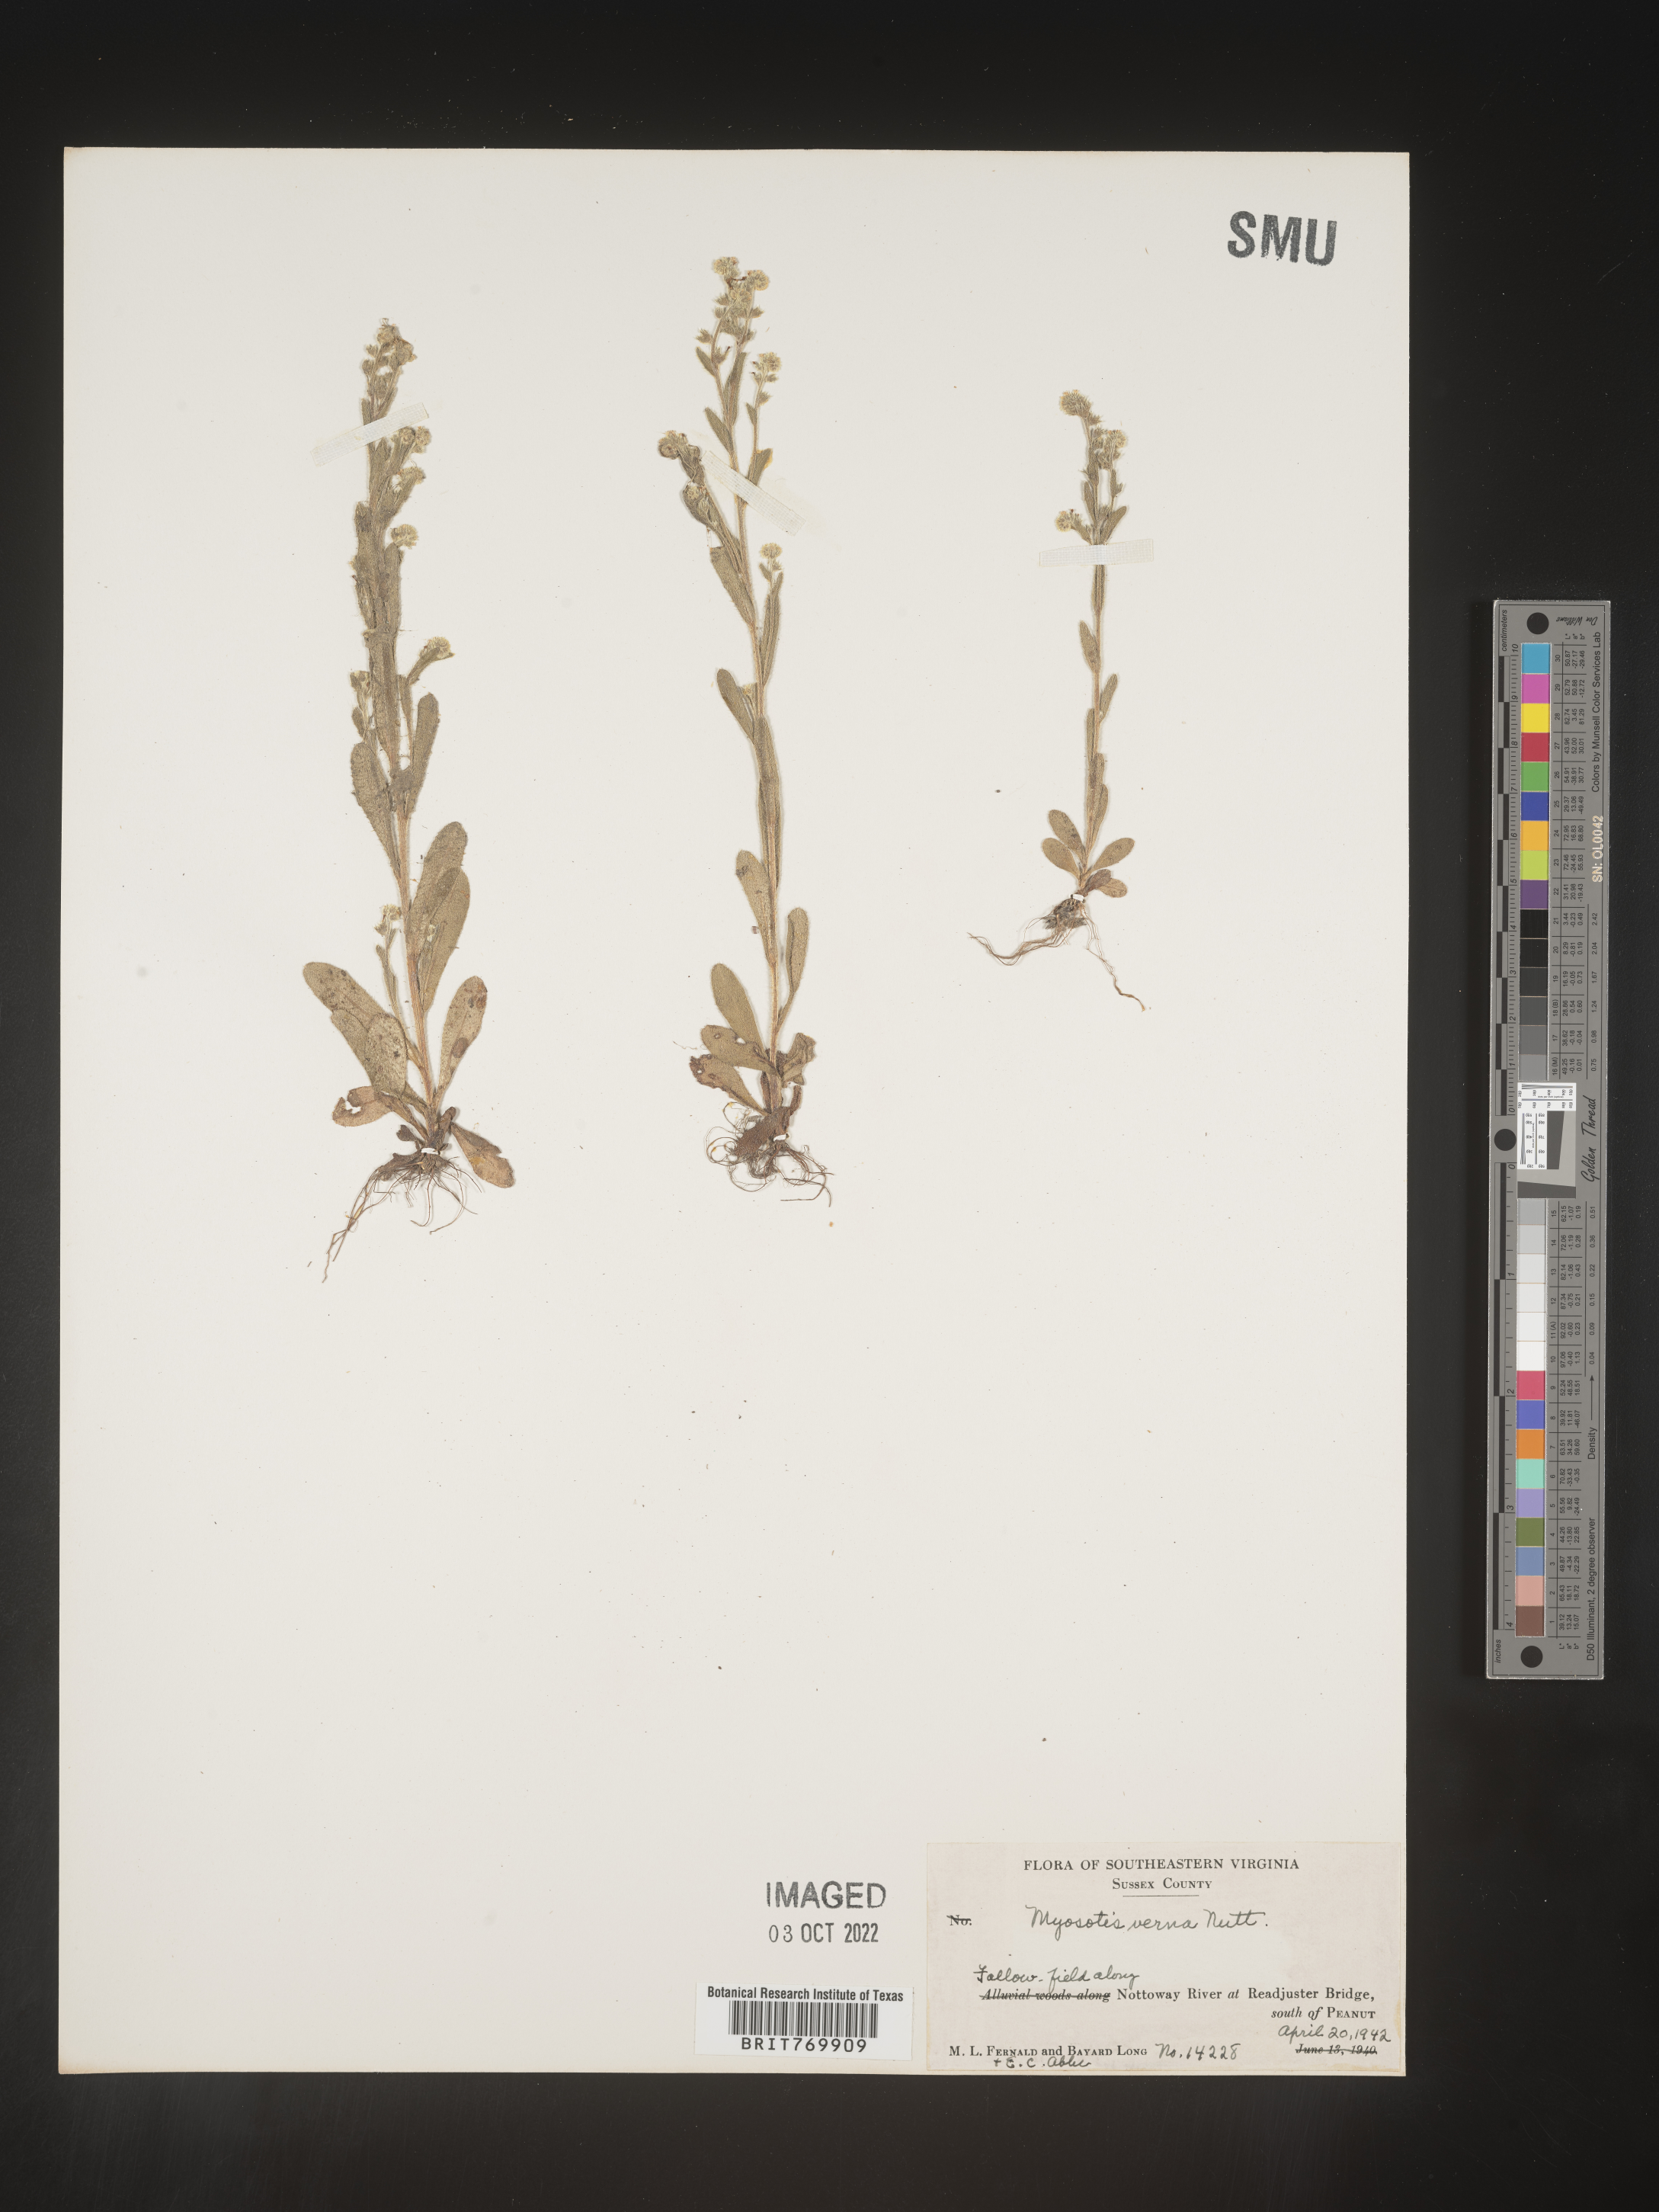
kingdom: Plantae
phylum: Tracheophyta
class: Magnoliopsida
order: Boraginales
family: Boraginaceae
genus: Myosotis
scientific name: Myosotis verna
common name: Early forget-me-not
